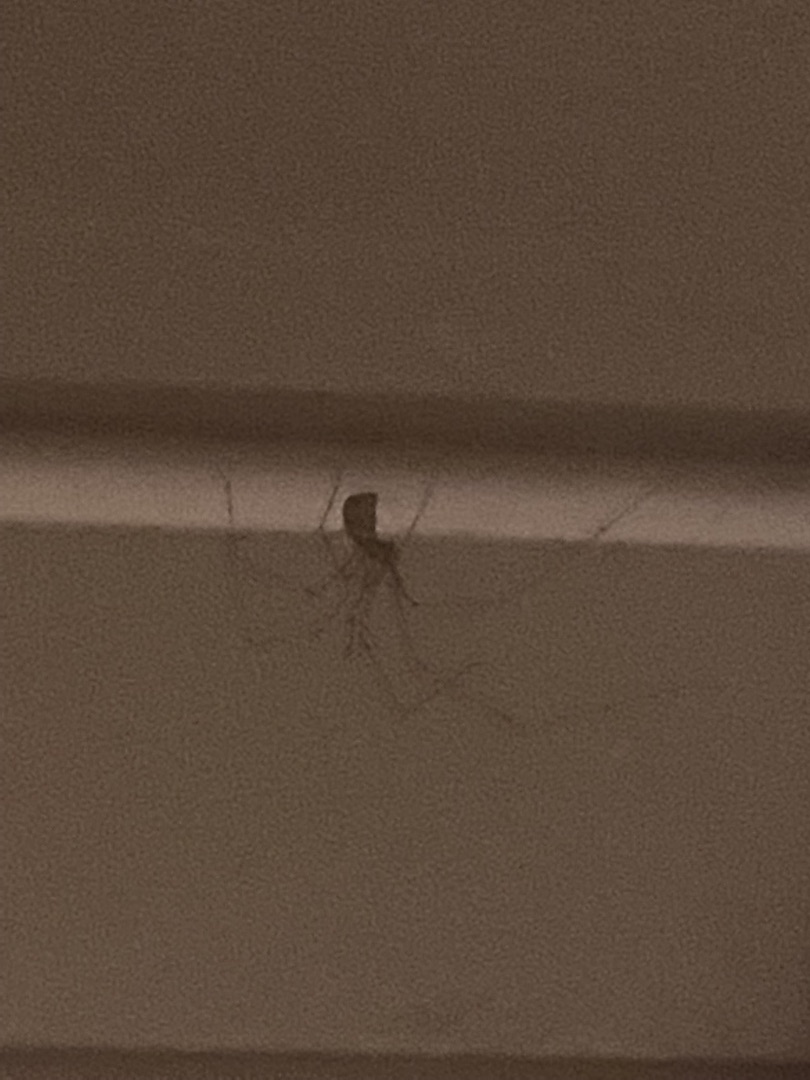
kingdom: Animalia
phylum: Arthropoda
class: Arachnida
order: Araneae
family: Pholcidae
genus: Pholcus
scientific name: Pholcus phalangioides
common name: Mejeredderkop
